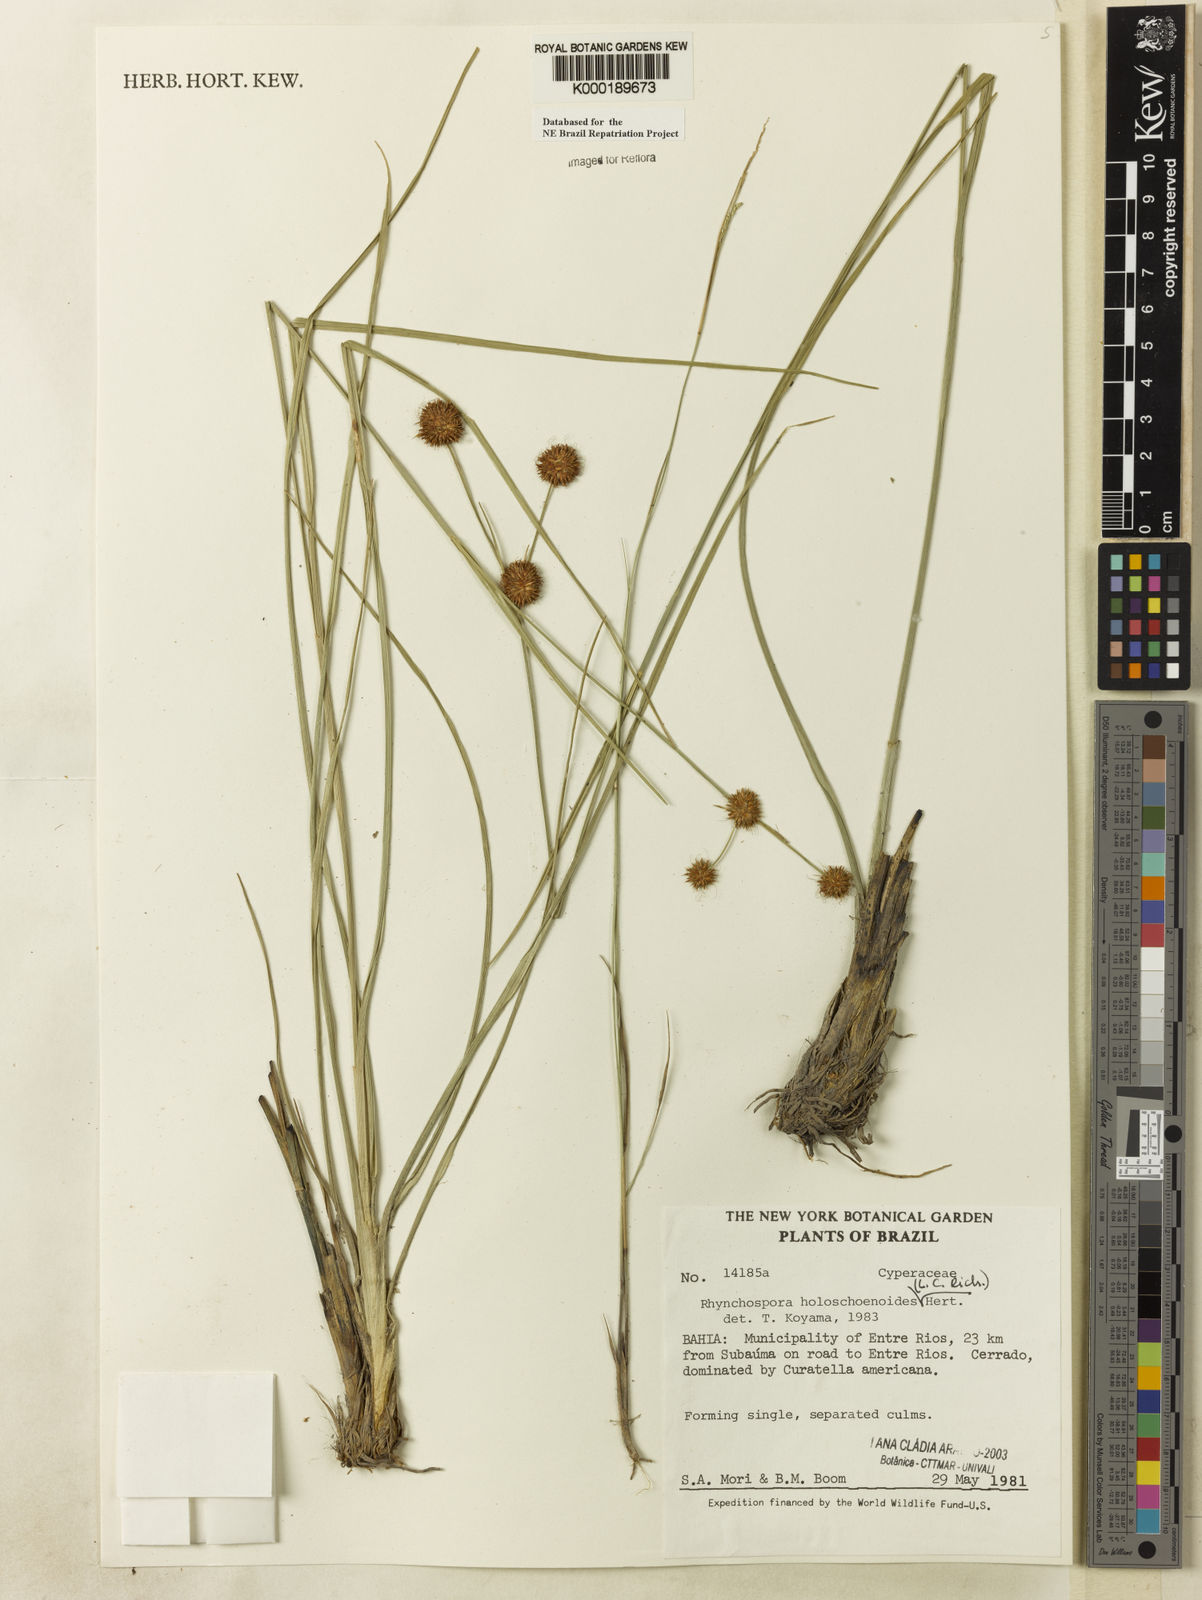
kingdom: Plantae
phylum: Tracheophyta
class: Liliopsida
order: Poales
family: Cyperaceae
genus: Rhynchospora
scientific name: Rhynchospora holoschoenoides
